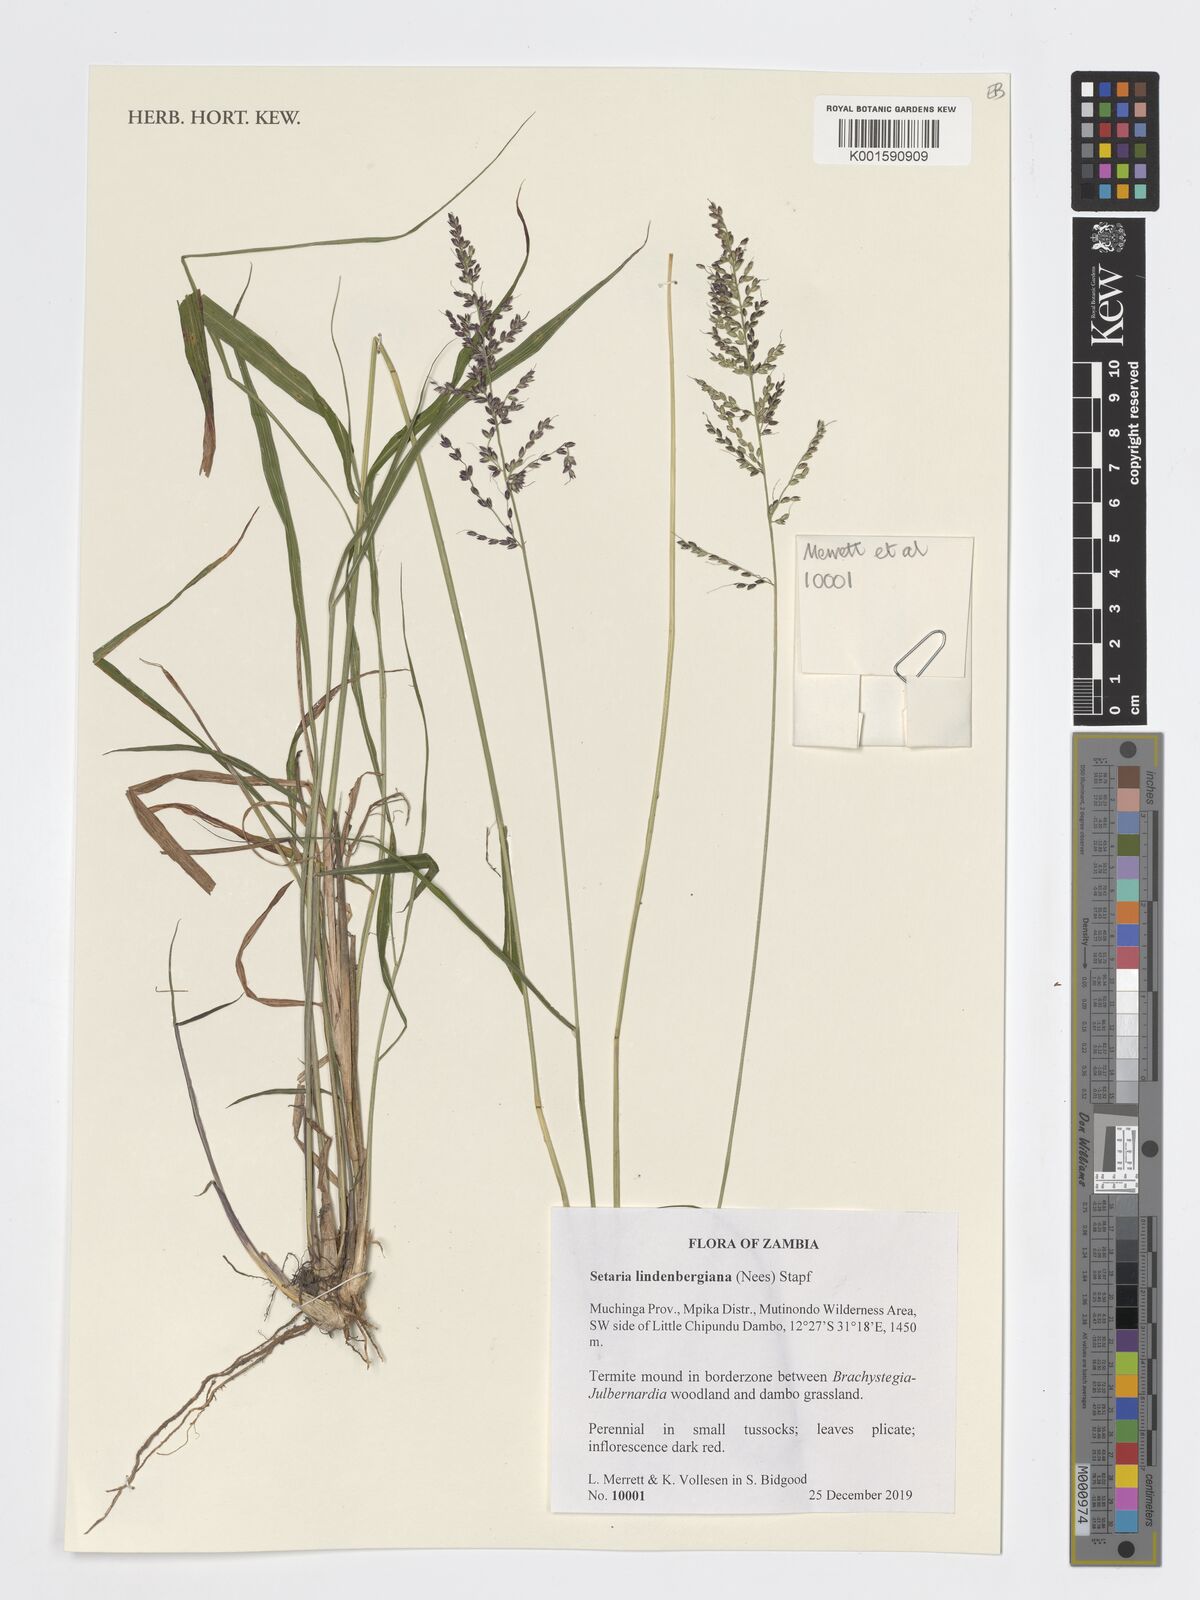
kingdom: Plantae
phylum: Tracheophyta
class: Liliopsida
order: Poales
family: Poaceae
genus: Setaria
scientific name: Setaria lindenbergiana
